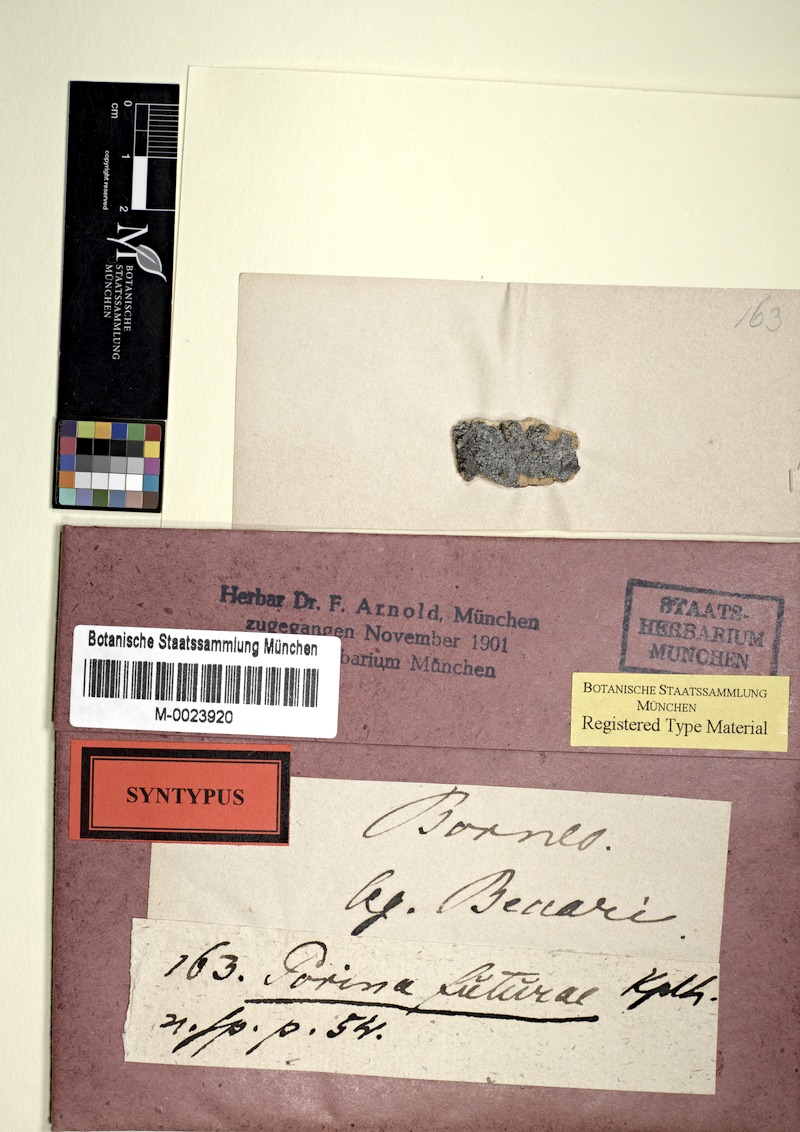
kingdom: Fungi
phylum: Ascomycota
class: Lecanoromycetes
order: Pertusariales
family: Pertusariaceae
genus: Porina
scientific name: Porina
